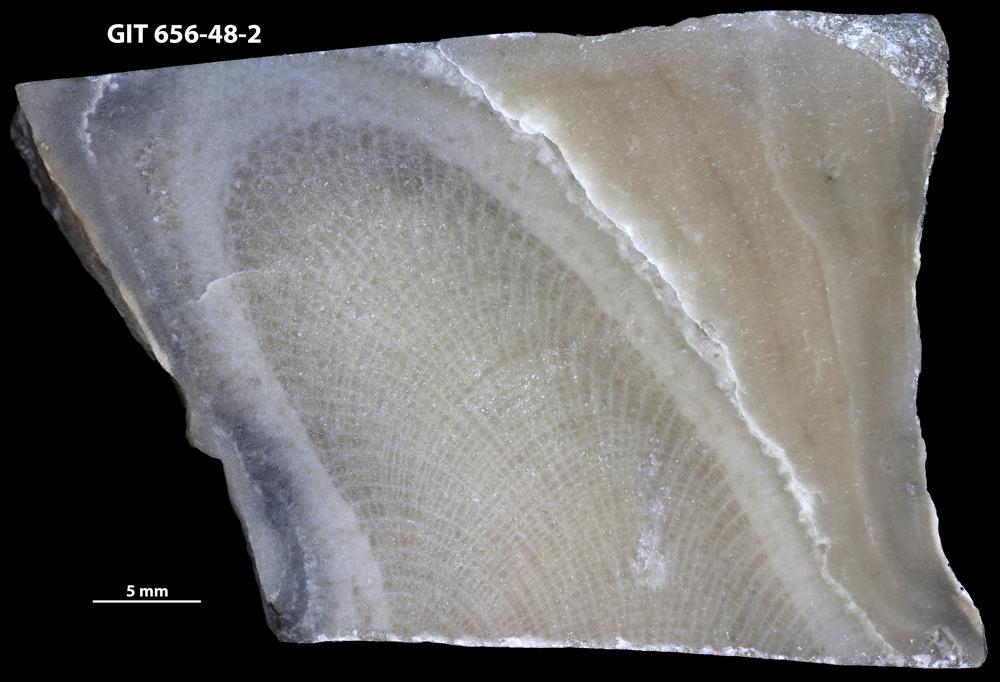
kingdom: Animalia
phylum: Cnidaria
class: Anthozoa
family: Theciidae
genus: Laceripora
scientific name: Laceripora
